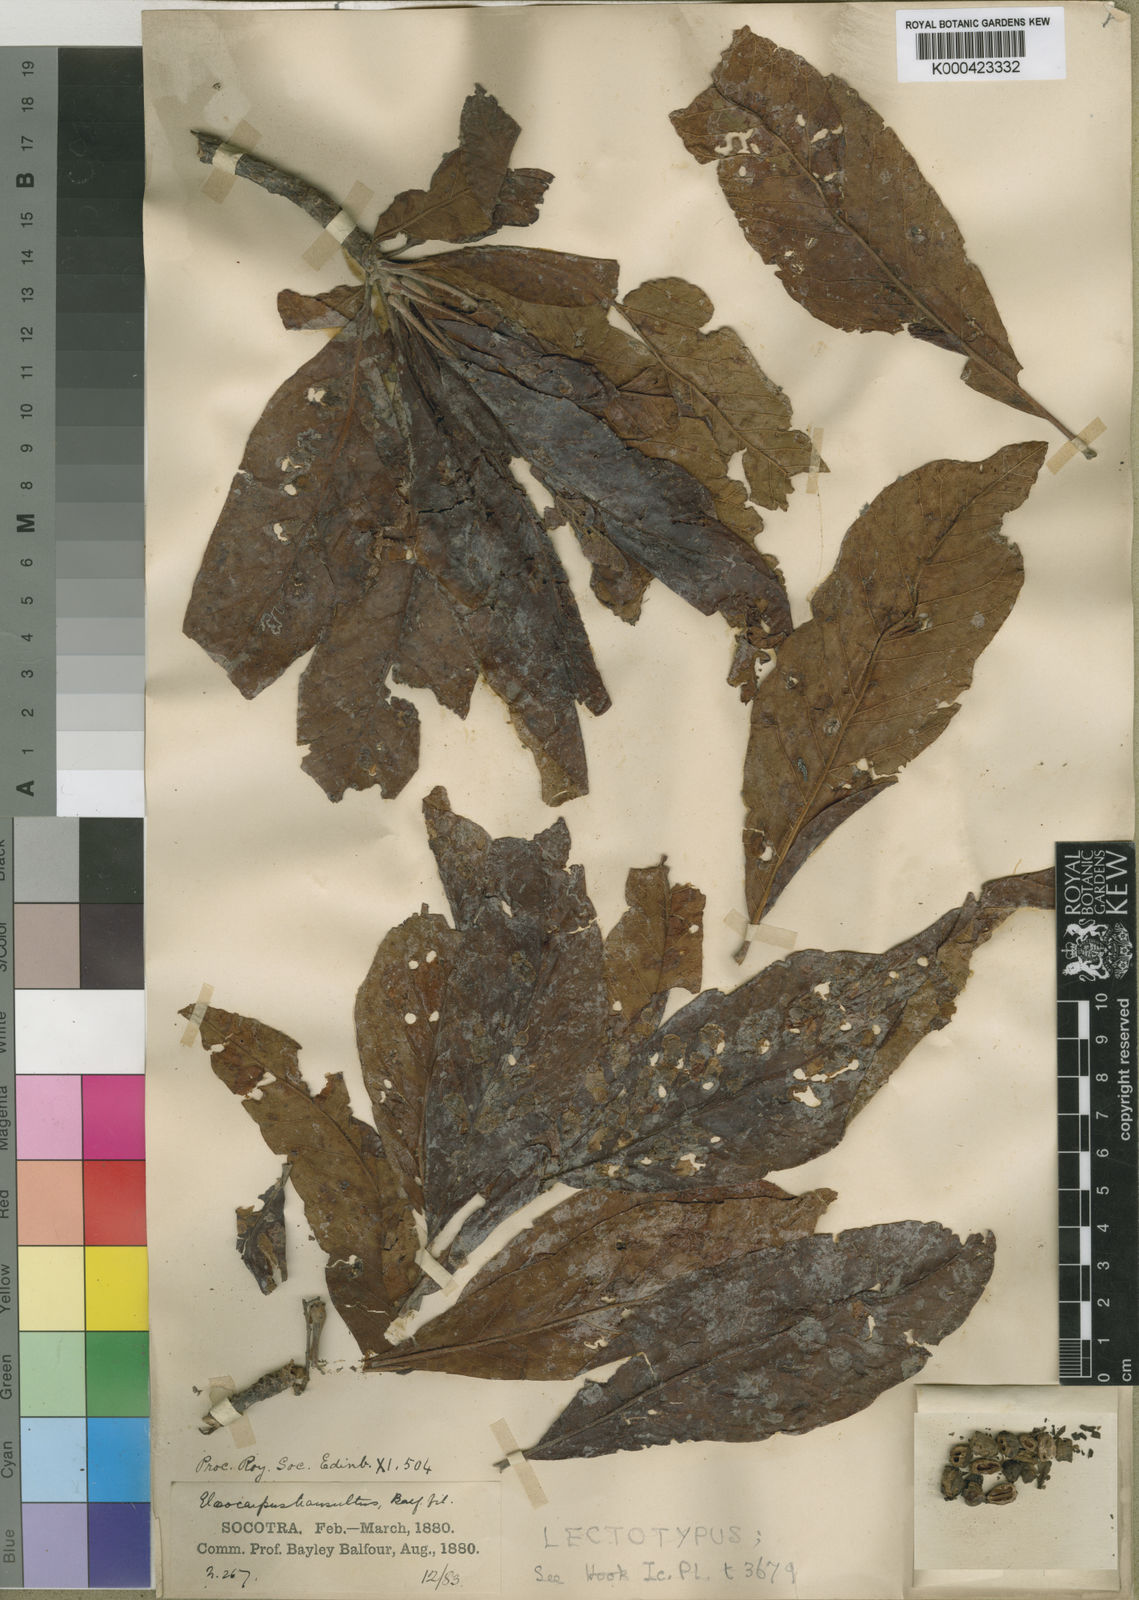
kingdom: Plantae
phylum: Tracheophyta
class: Magnoliopsida
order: Sapindales
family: Anacardiaceae
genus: Lannea
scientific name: Lannea transulta
